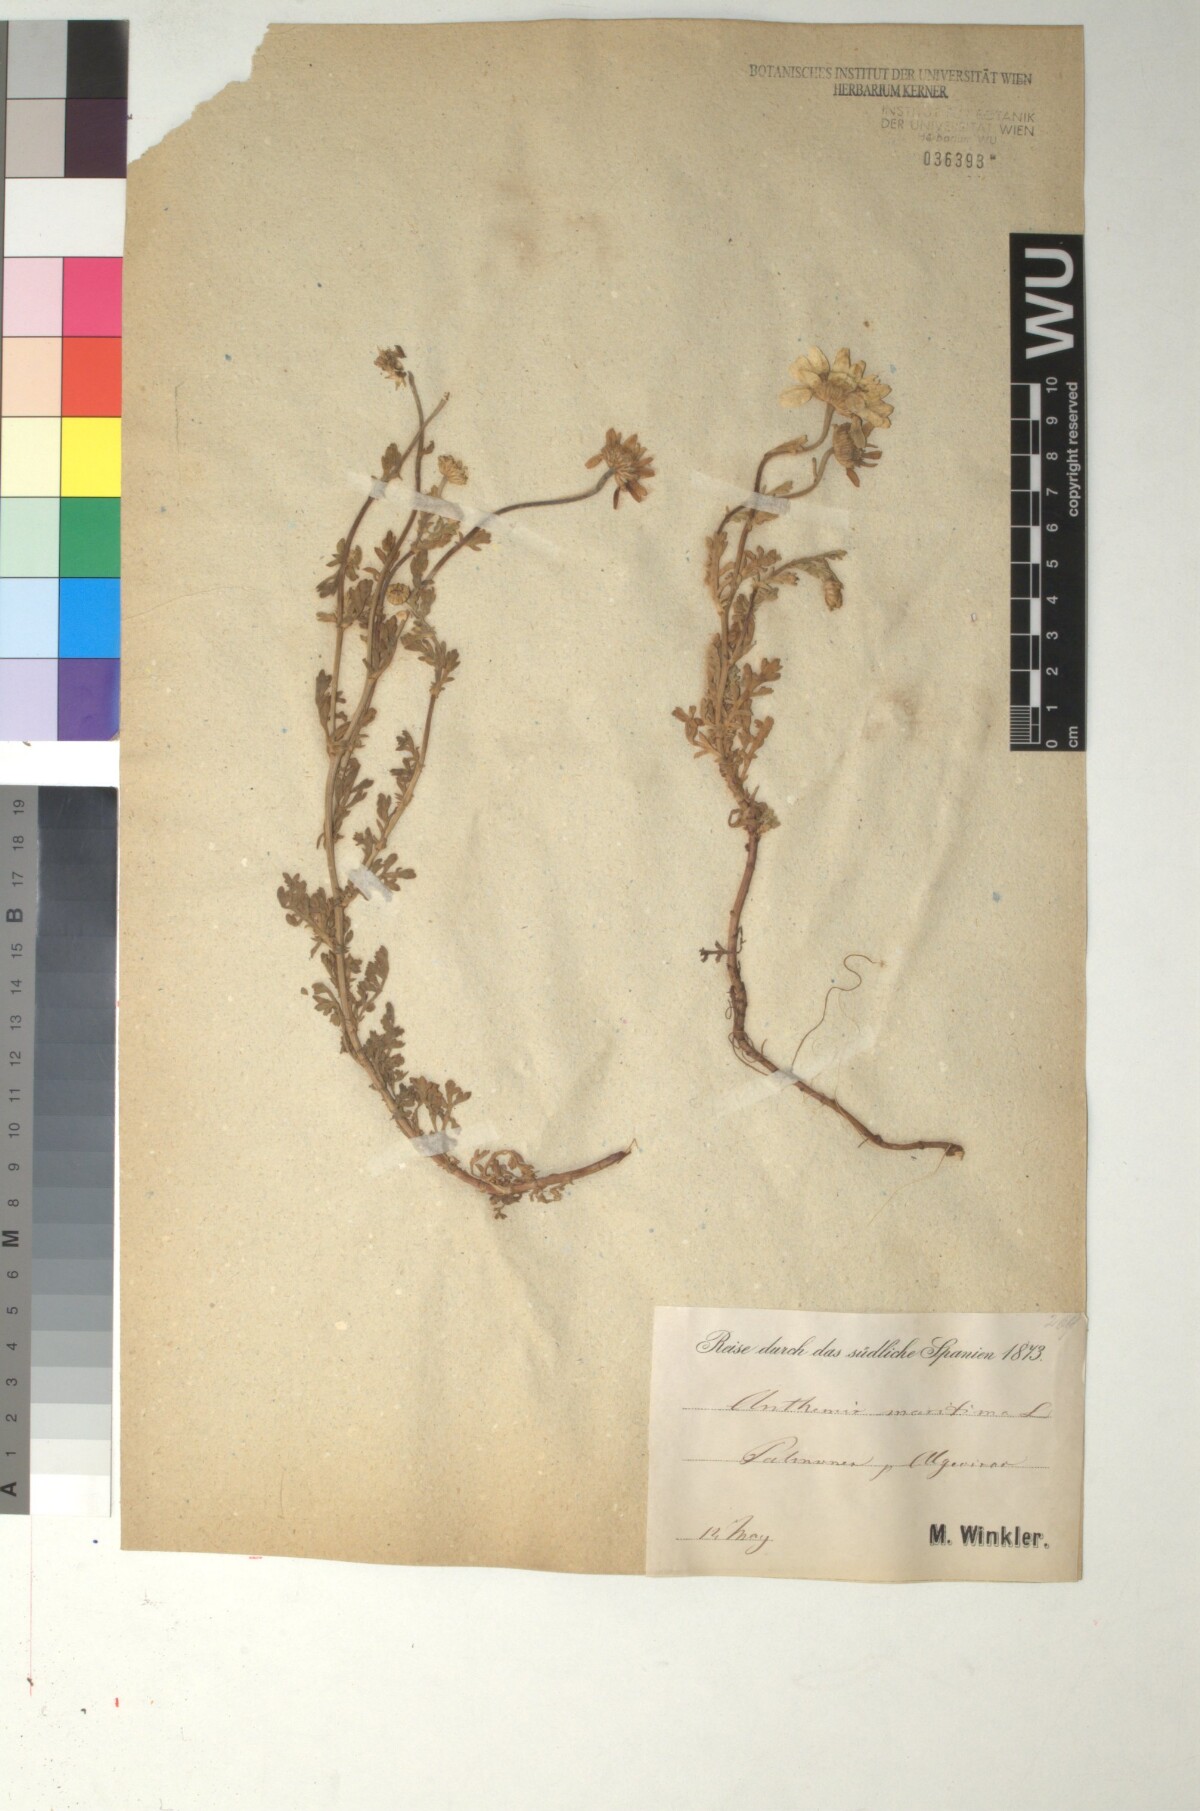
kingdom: Plantae
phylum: Tracheophyta
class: Magnoliopsida
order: Asterales
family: Asteraceae
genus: Anthemis
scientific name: Anthemis maritima
